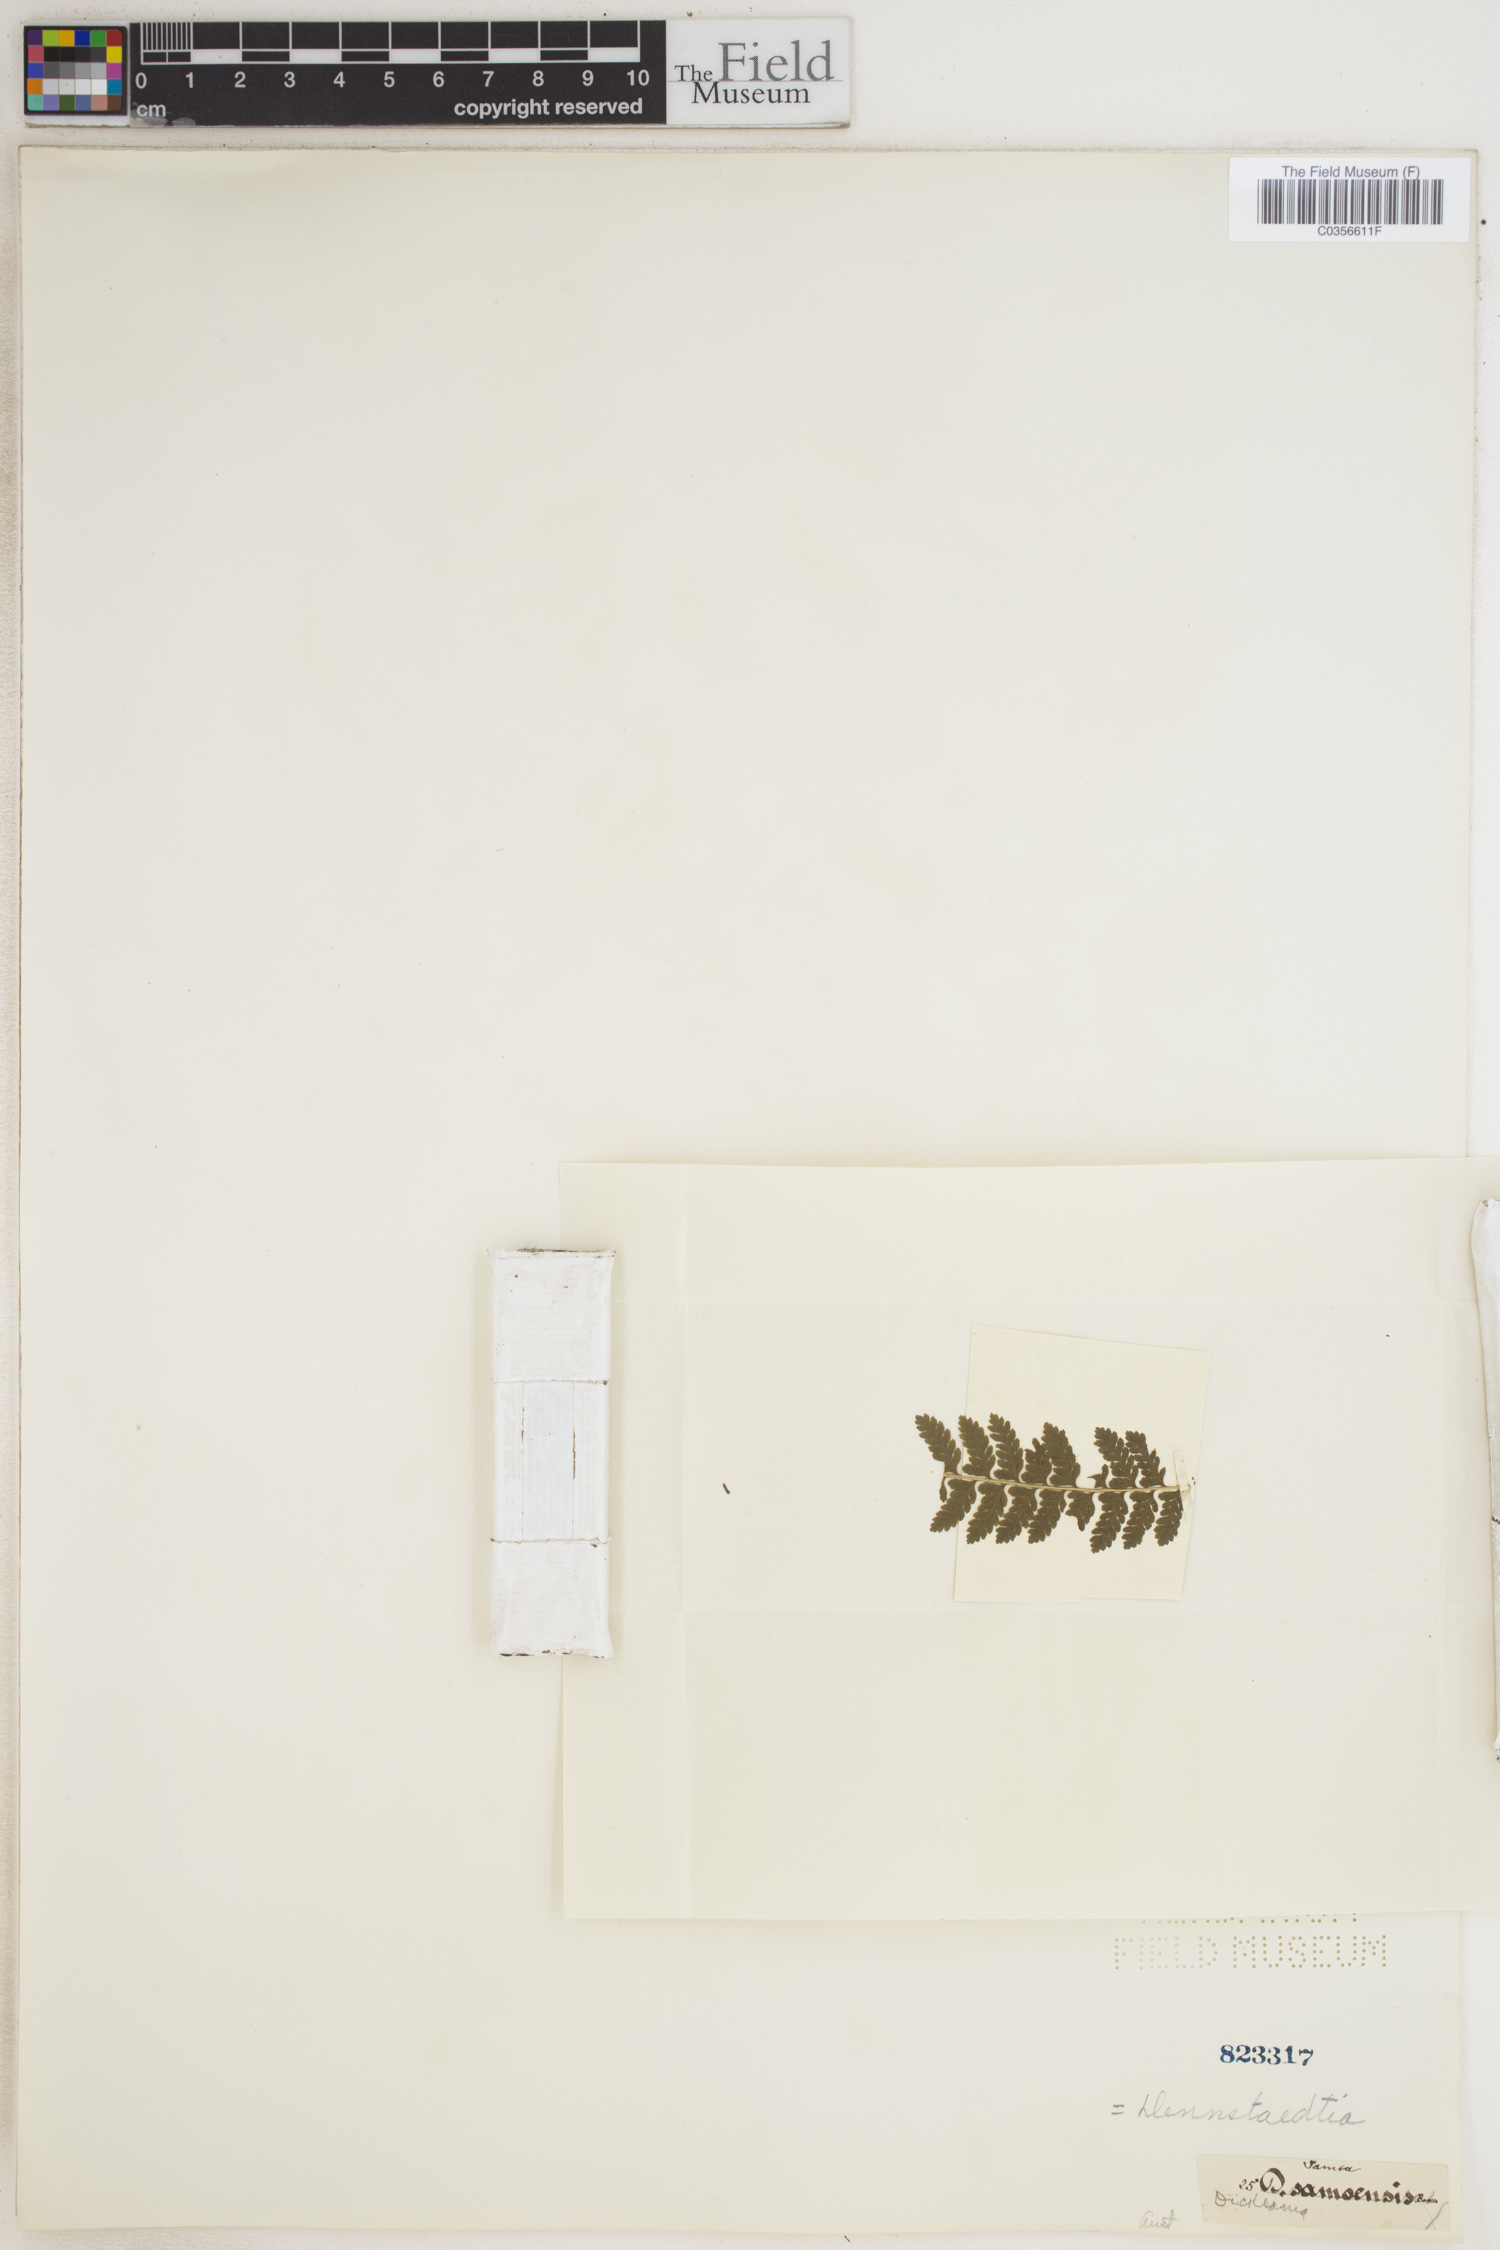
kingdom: Plantae
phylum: Tracheophyta
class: Polypodiopsida
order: Polypodiales
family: Dennstaedtiaceae
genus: Dennstaedtia
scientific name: Dennstaedtia samoensis
